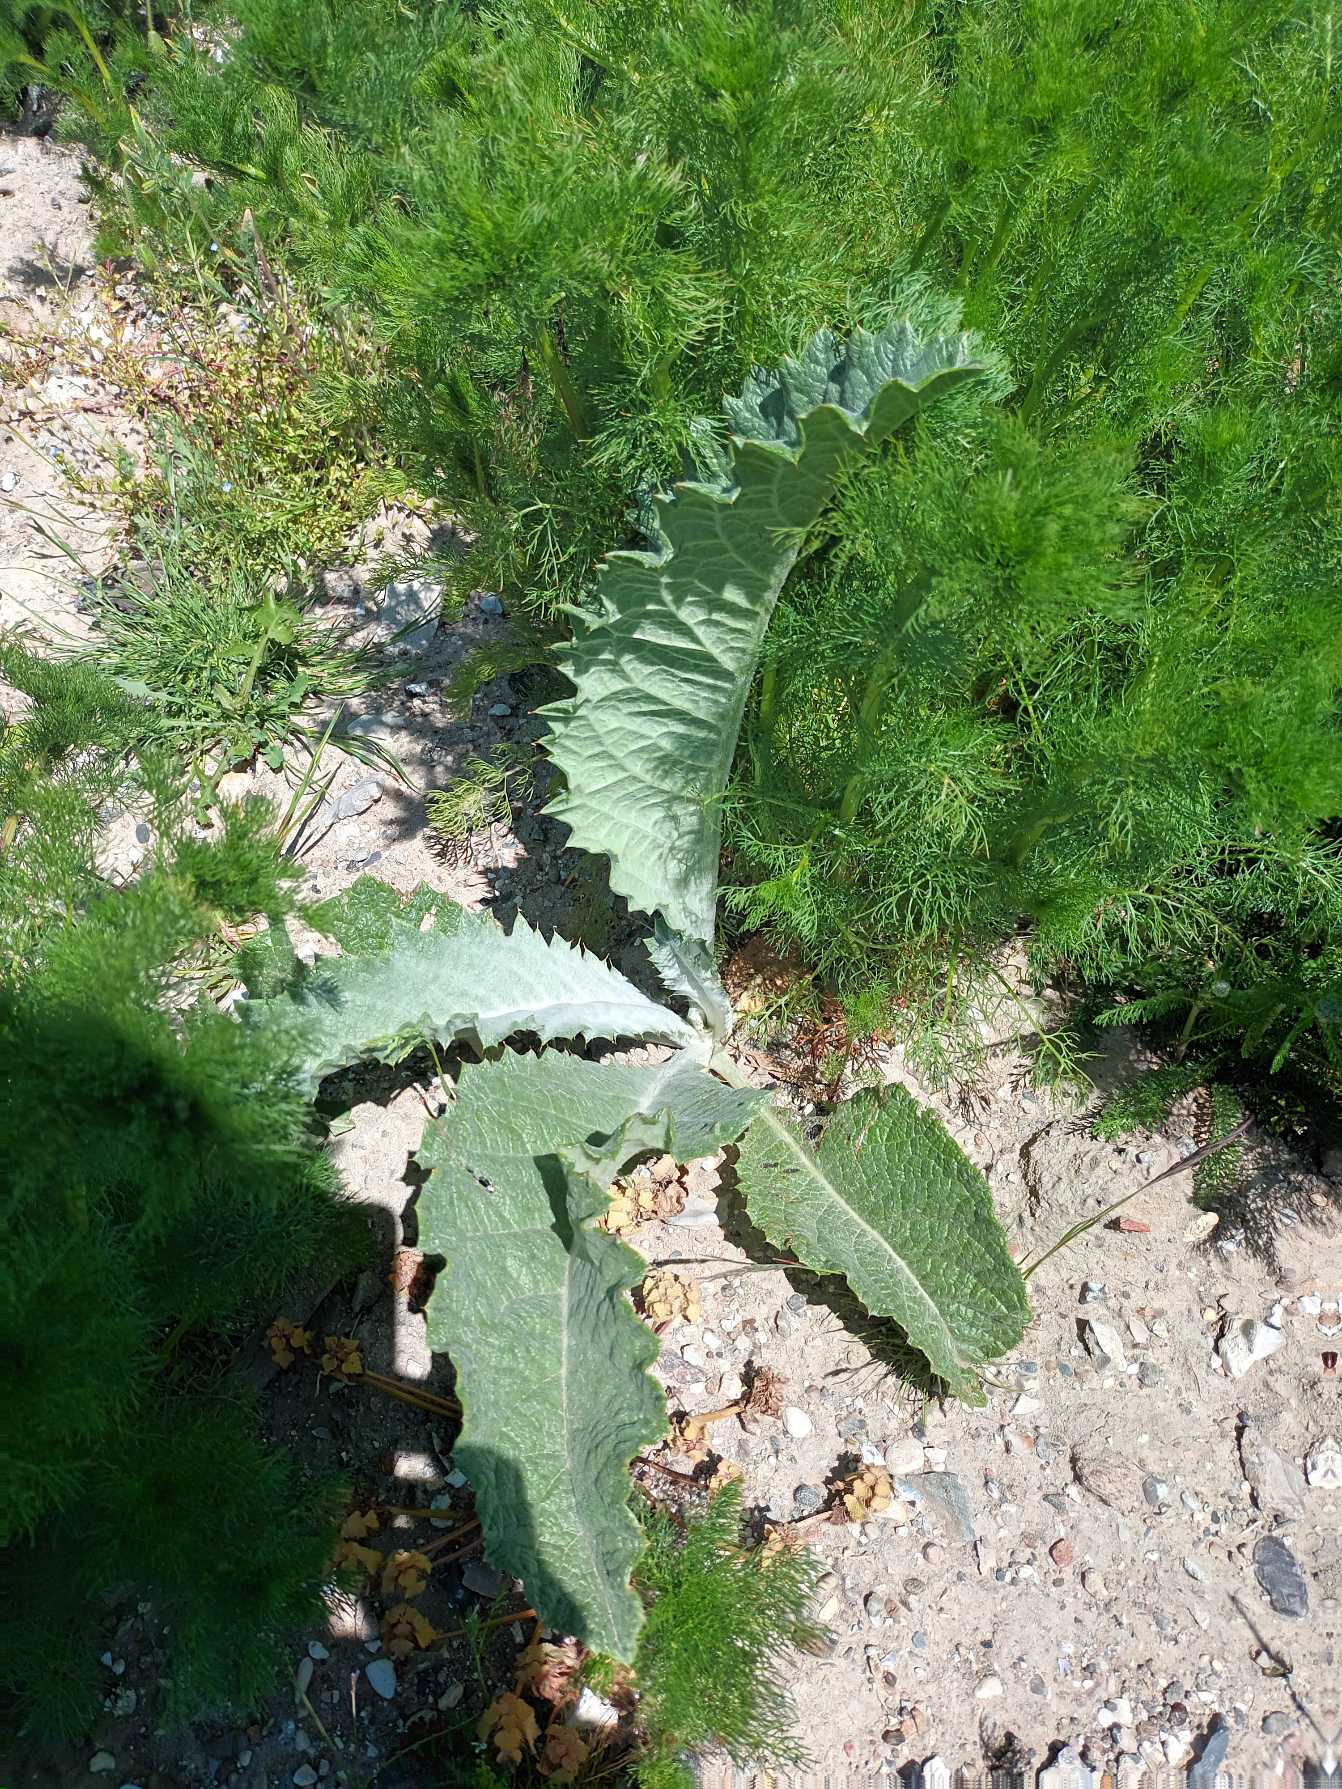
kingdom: Plantae
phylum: Tracheophyta
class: Magnoliopsida
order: Asterales
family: Asteraceae
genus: Onopordum
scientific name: Onopordum acanthium
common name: Æselfoder
